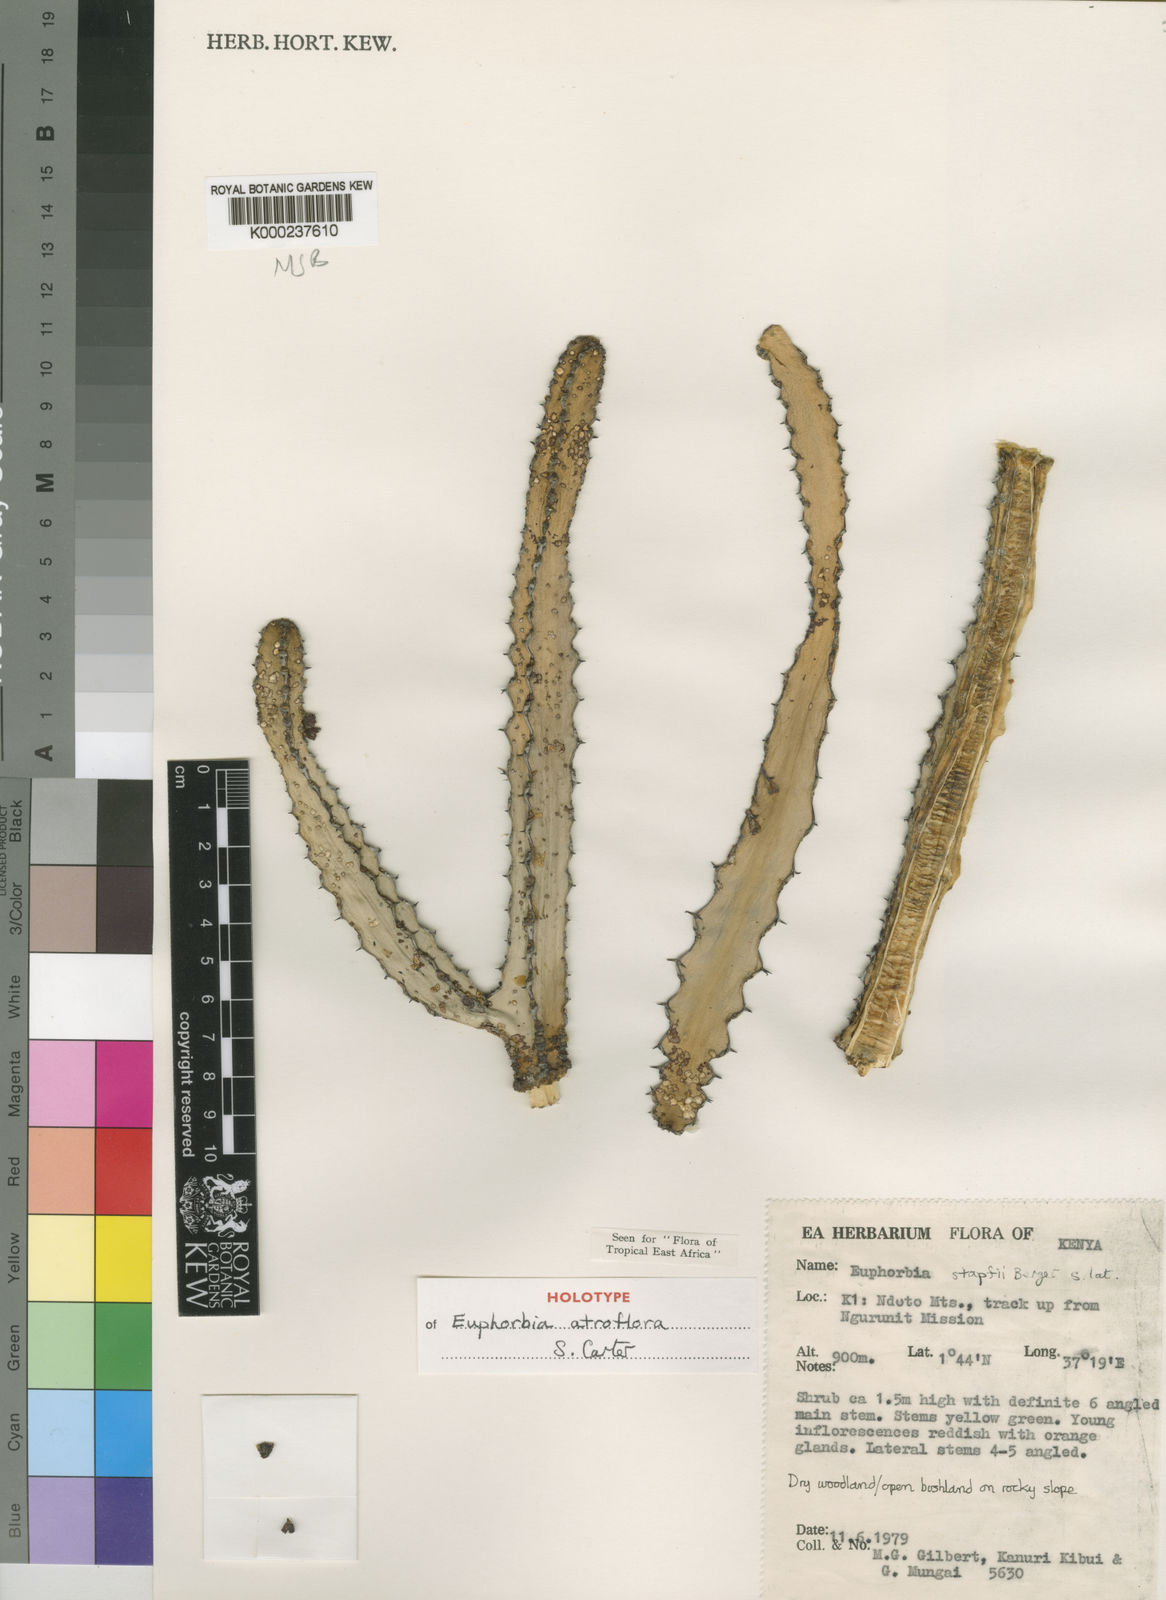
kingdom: Plantae
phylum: Tracheophyta
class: Magnoliopsida
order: Malpighiales
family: Euphorbiaceae
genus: Euphorbia
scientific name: Euphorbia atroflora
